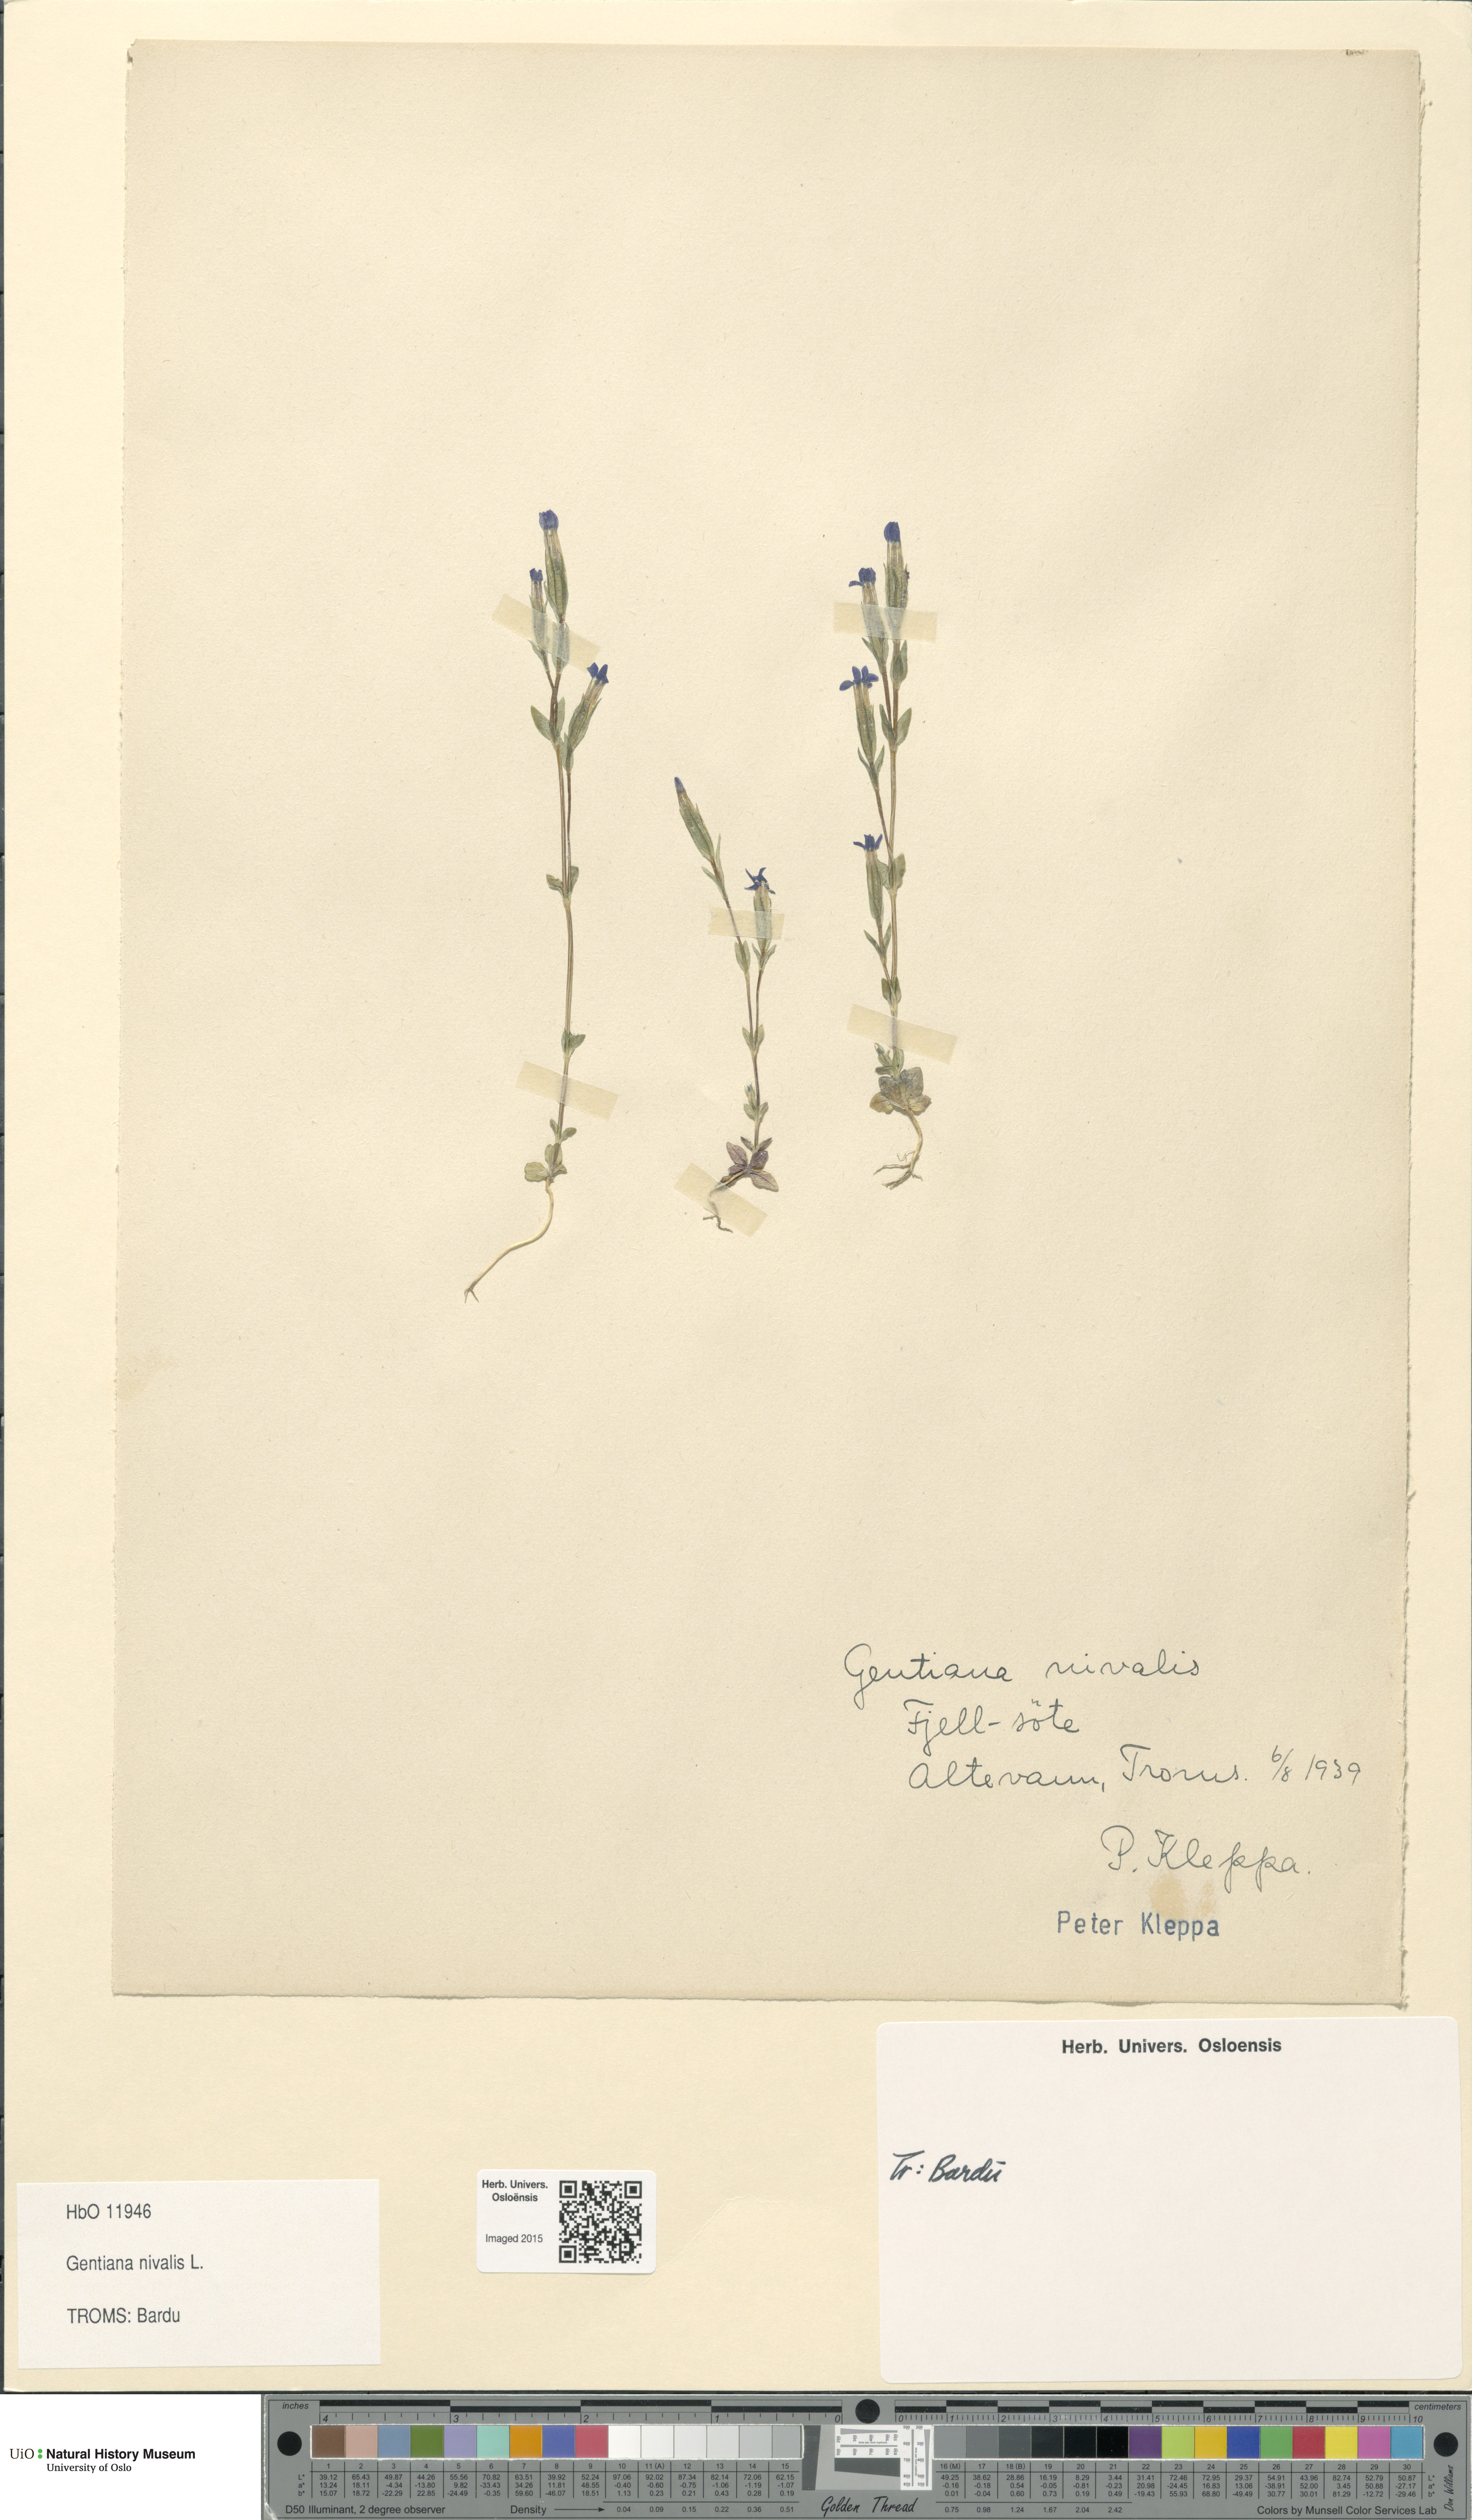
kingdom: Plantae
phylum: Tracheophyta
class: Magnoliopsida
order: Gentianales
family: Gentianaceae
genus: Gentiana
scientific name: Gentiana nivalis
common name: Alpine gentian
